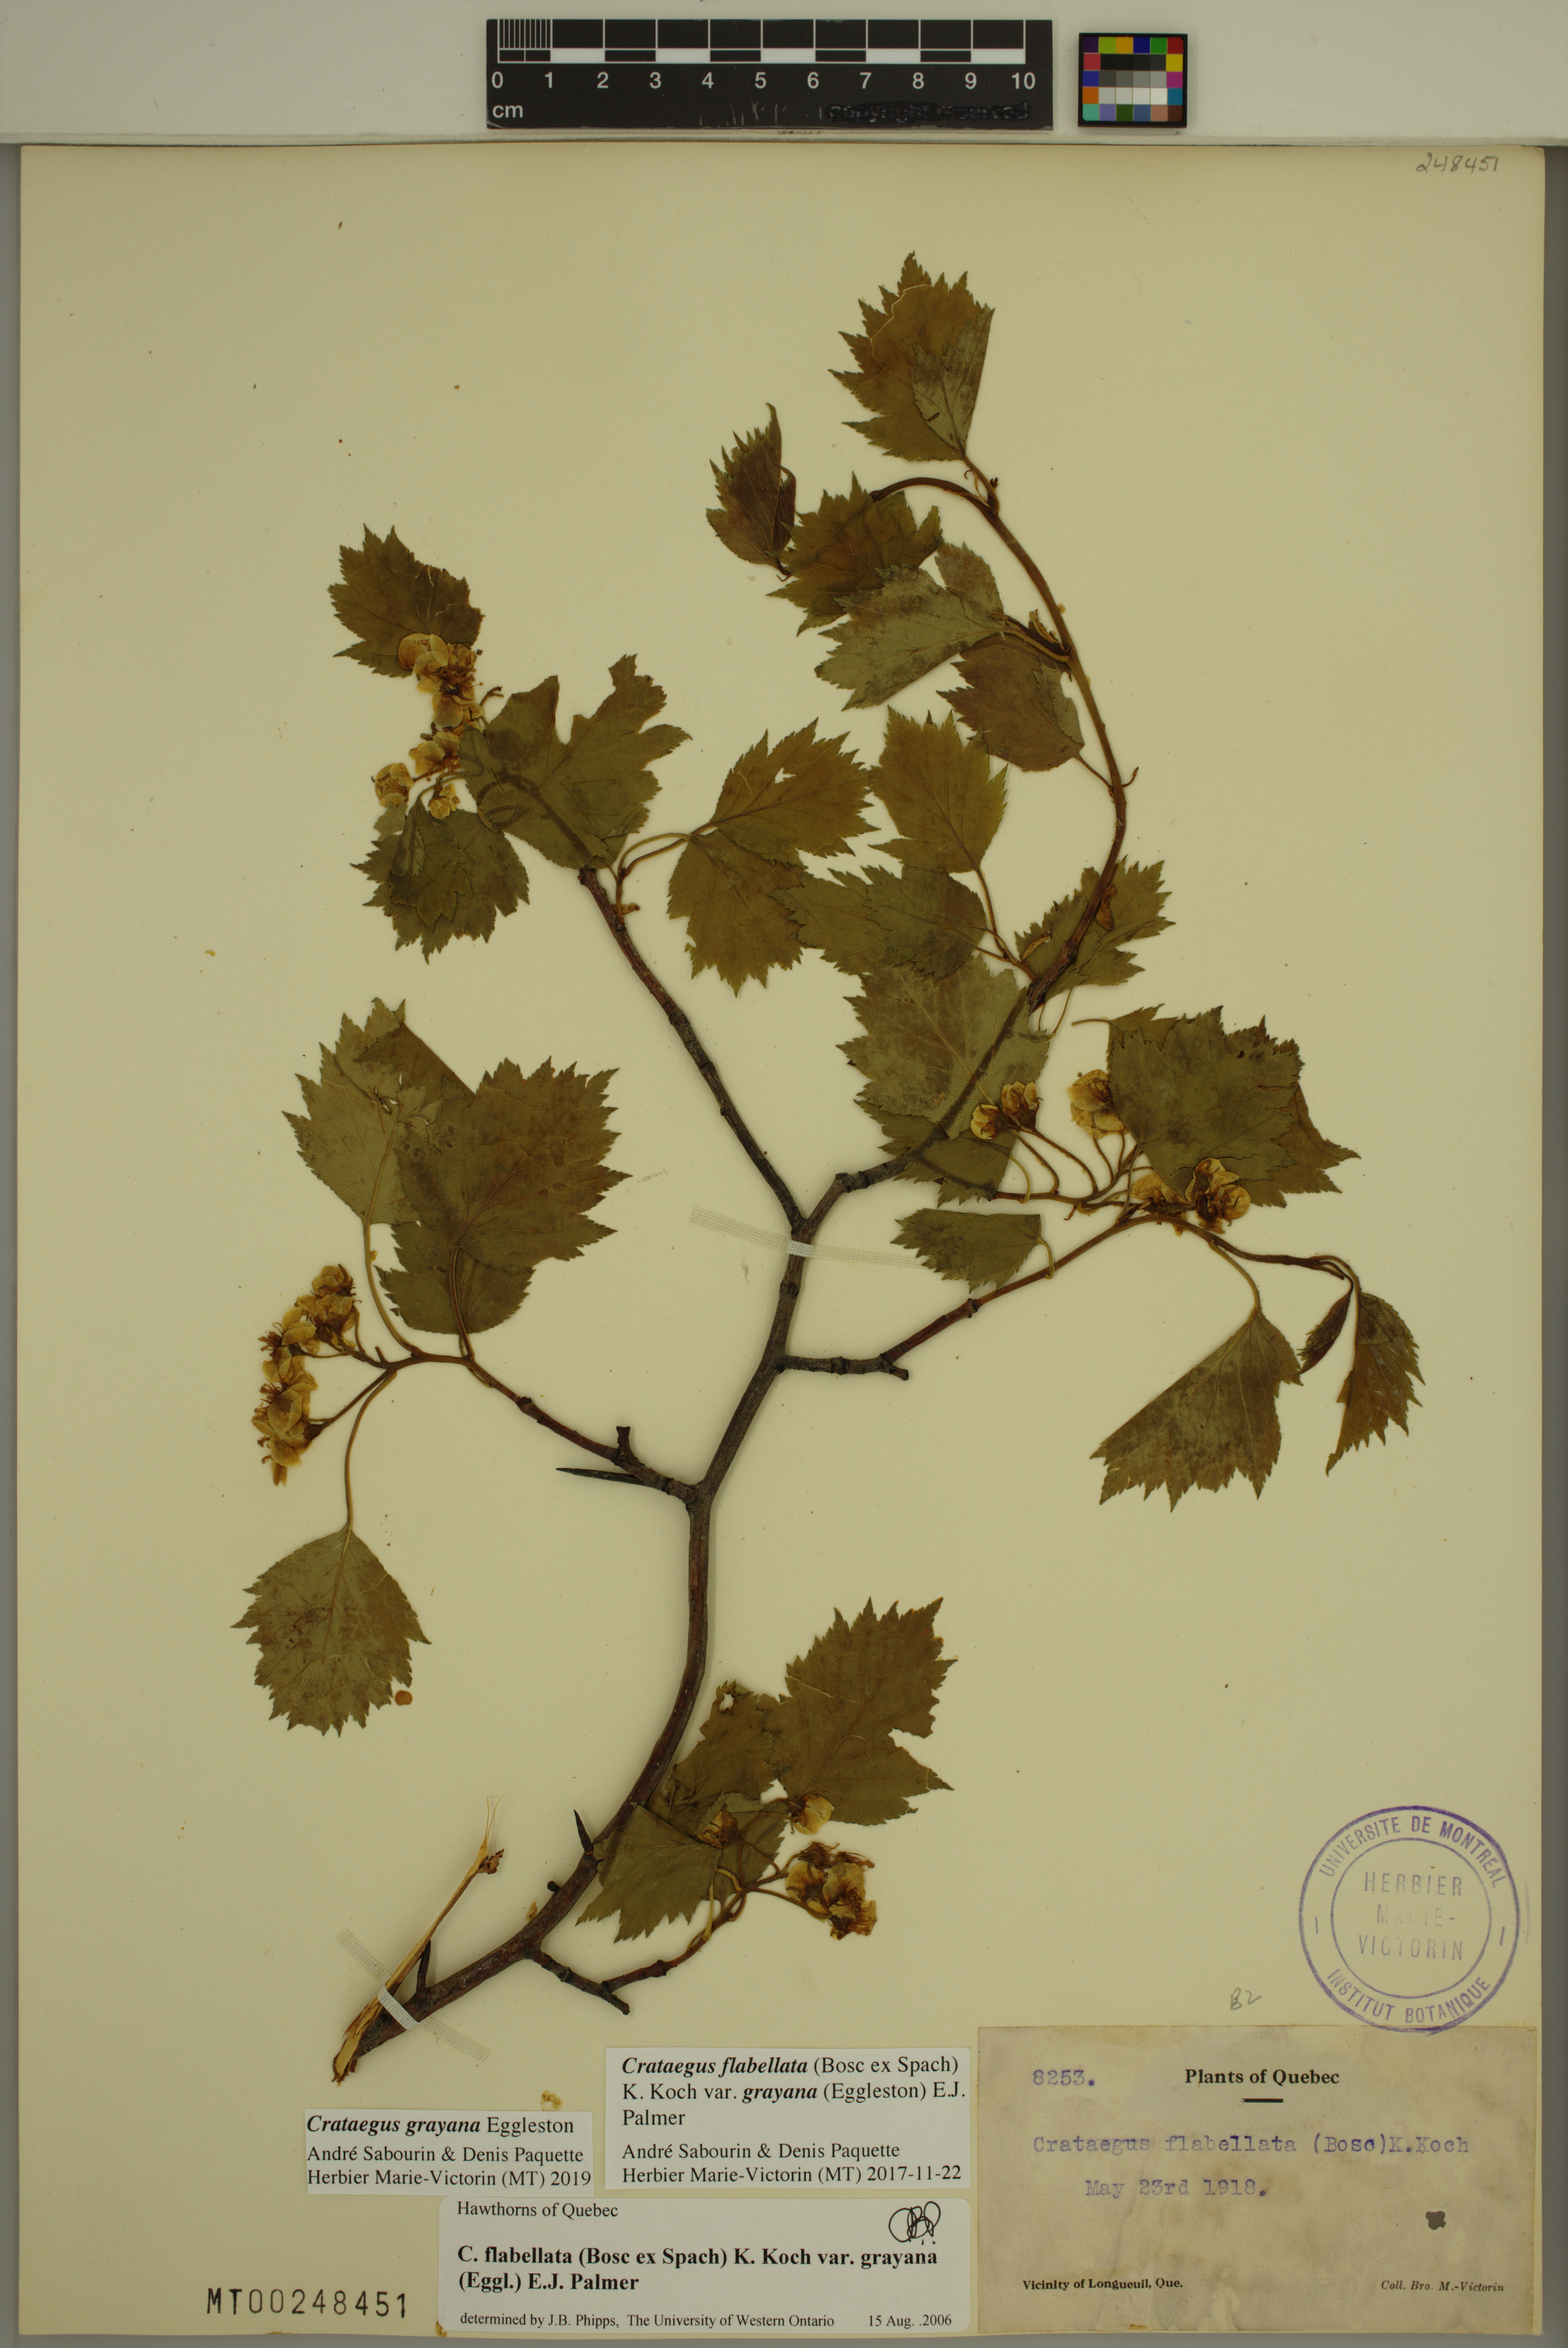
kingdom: Plantae
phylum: Tracheophyta
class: Magnoliopsida
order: Rosales
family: Rosaceae
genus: Crataegus
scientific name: Crataegus schuettei
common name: Schuette's hawthorn
